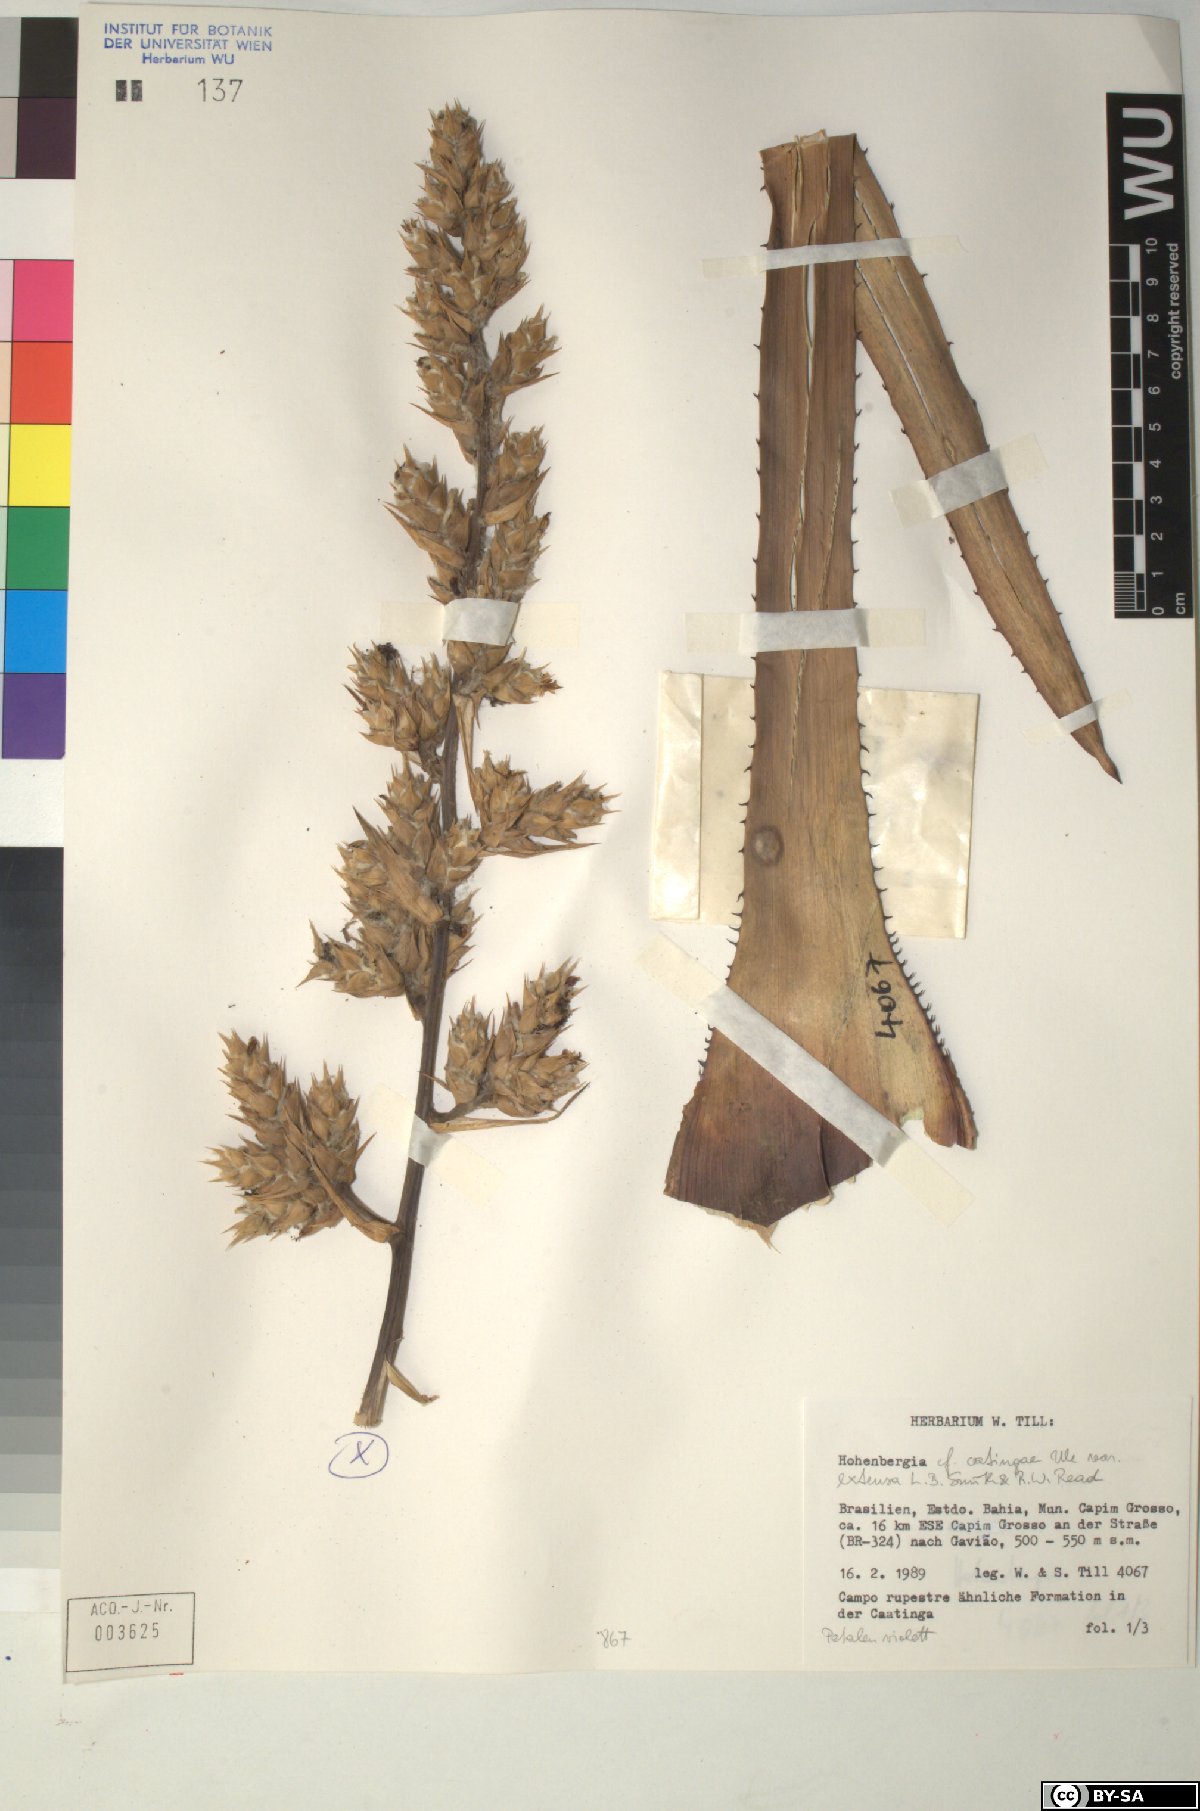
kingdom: Plantae
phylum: Tracheophyta
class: Liliopsida
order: Poales
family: Bromeliaceae
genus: Hohenbergia
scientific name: Hohenbergia
